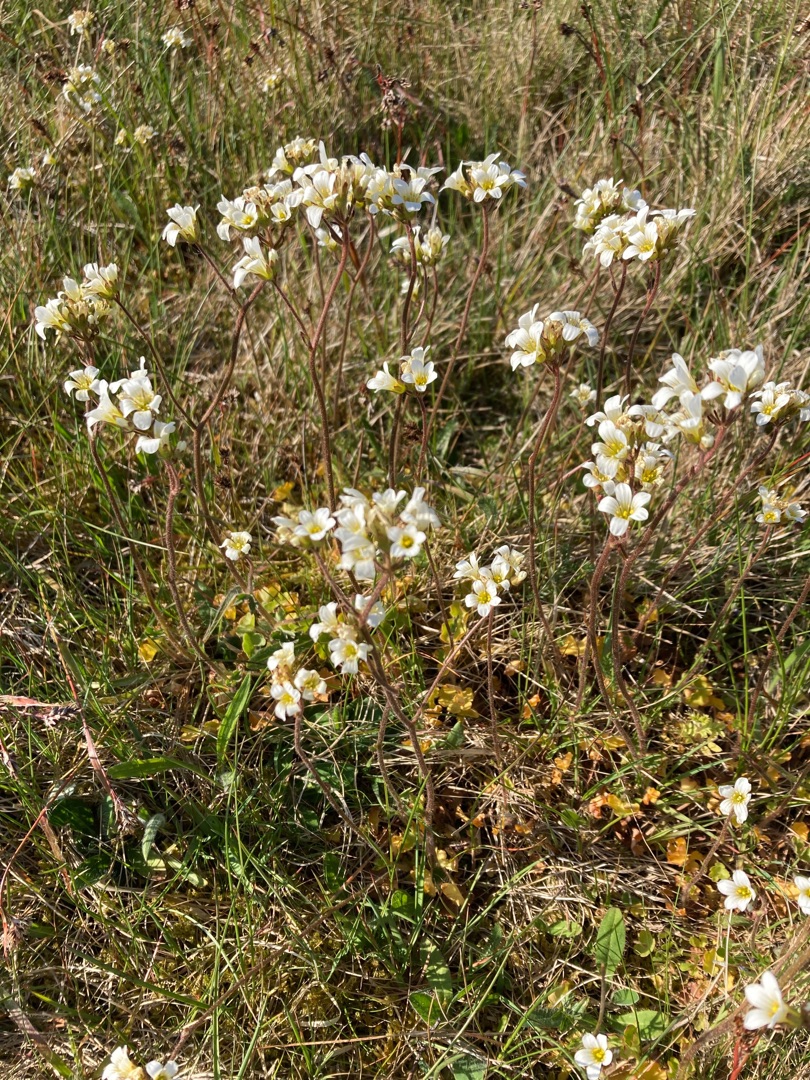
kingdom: Plantae
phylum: Tracheophyta
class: Magnoliopsida
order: Saxifragales
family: Saxifragaceae
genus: Saxifraga
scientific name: Saxifraga granulata
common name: Kornet stenbræk
